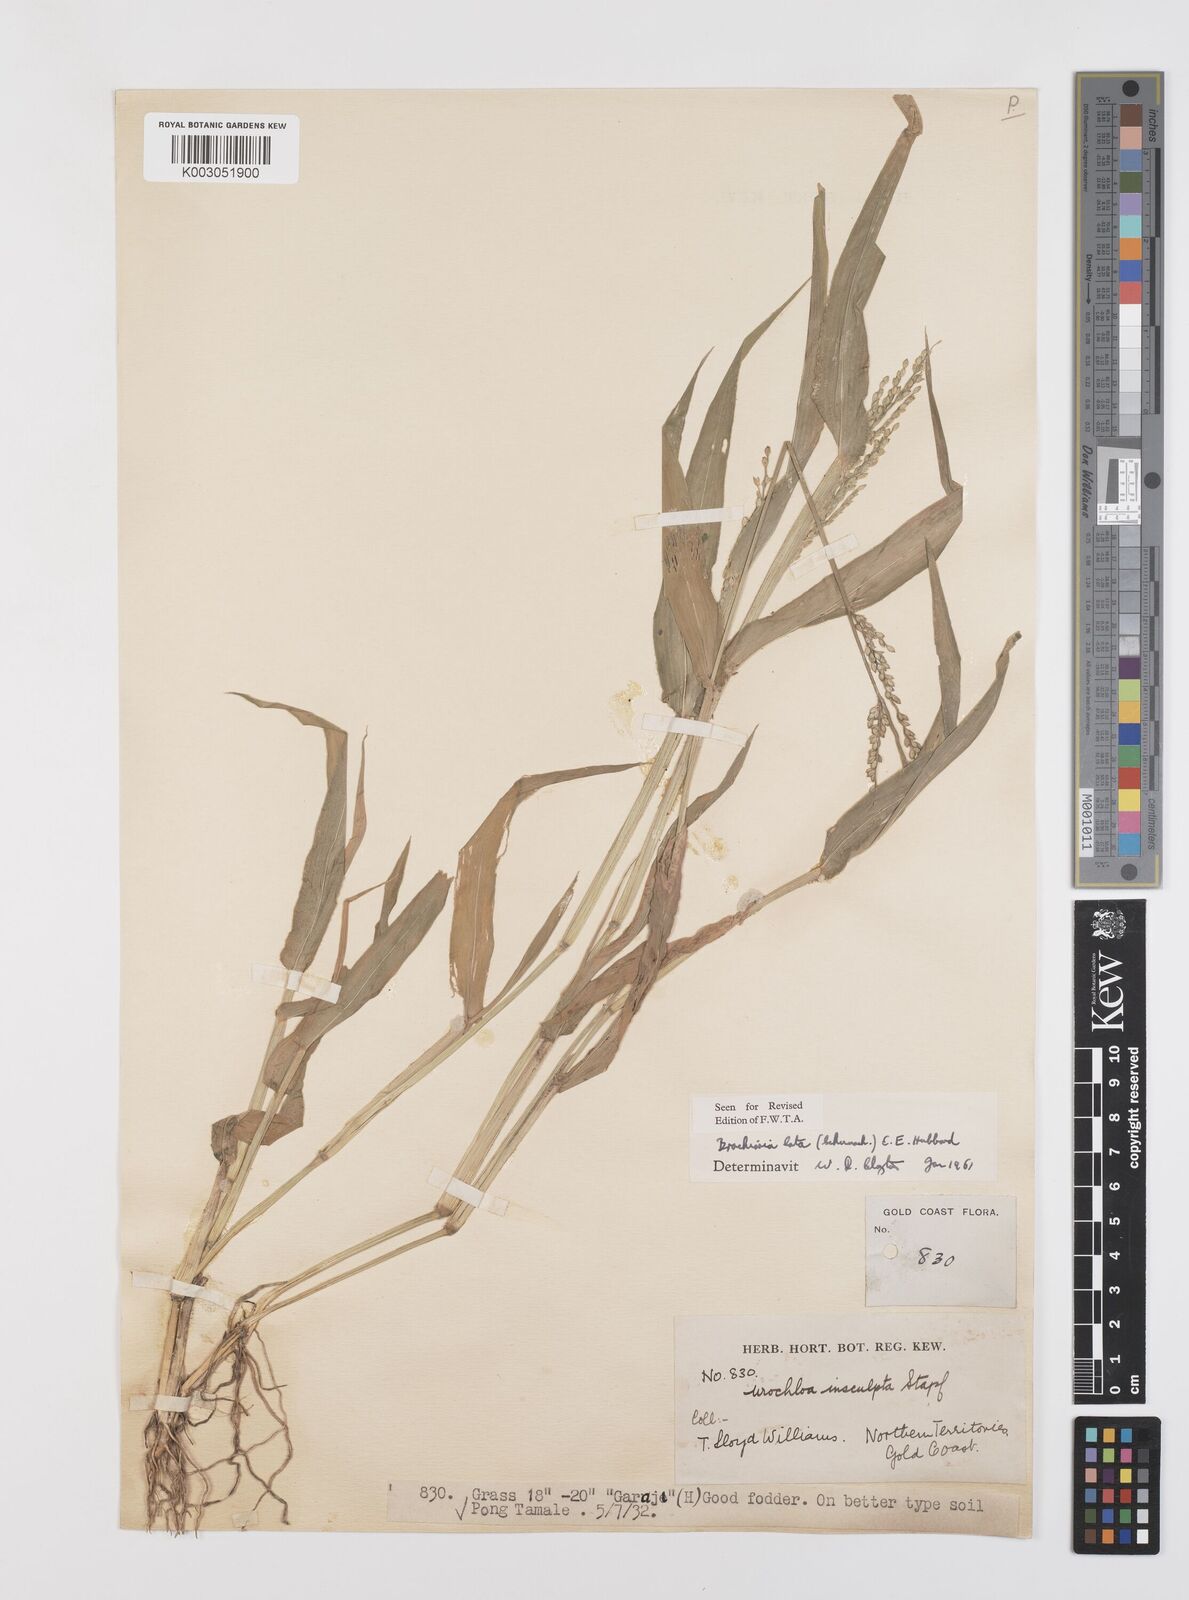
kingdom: Plantae
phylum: Tracheophyta
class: Liliopsida
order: Poales
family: Poaceae
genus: Urochloa
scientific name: Urochloa lata
